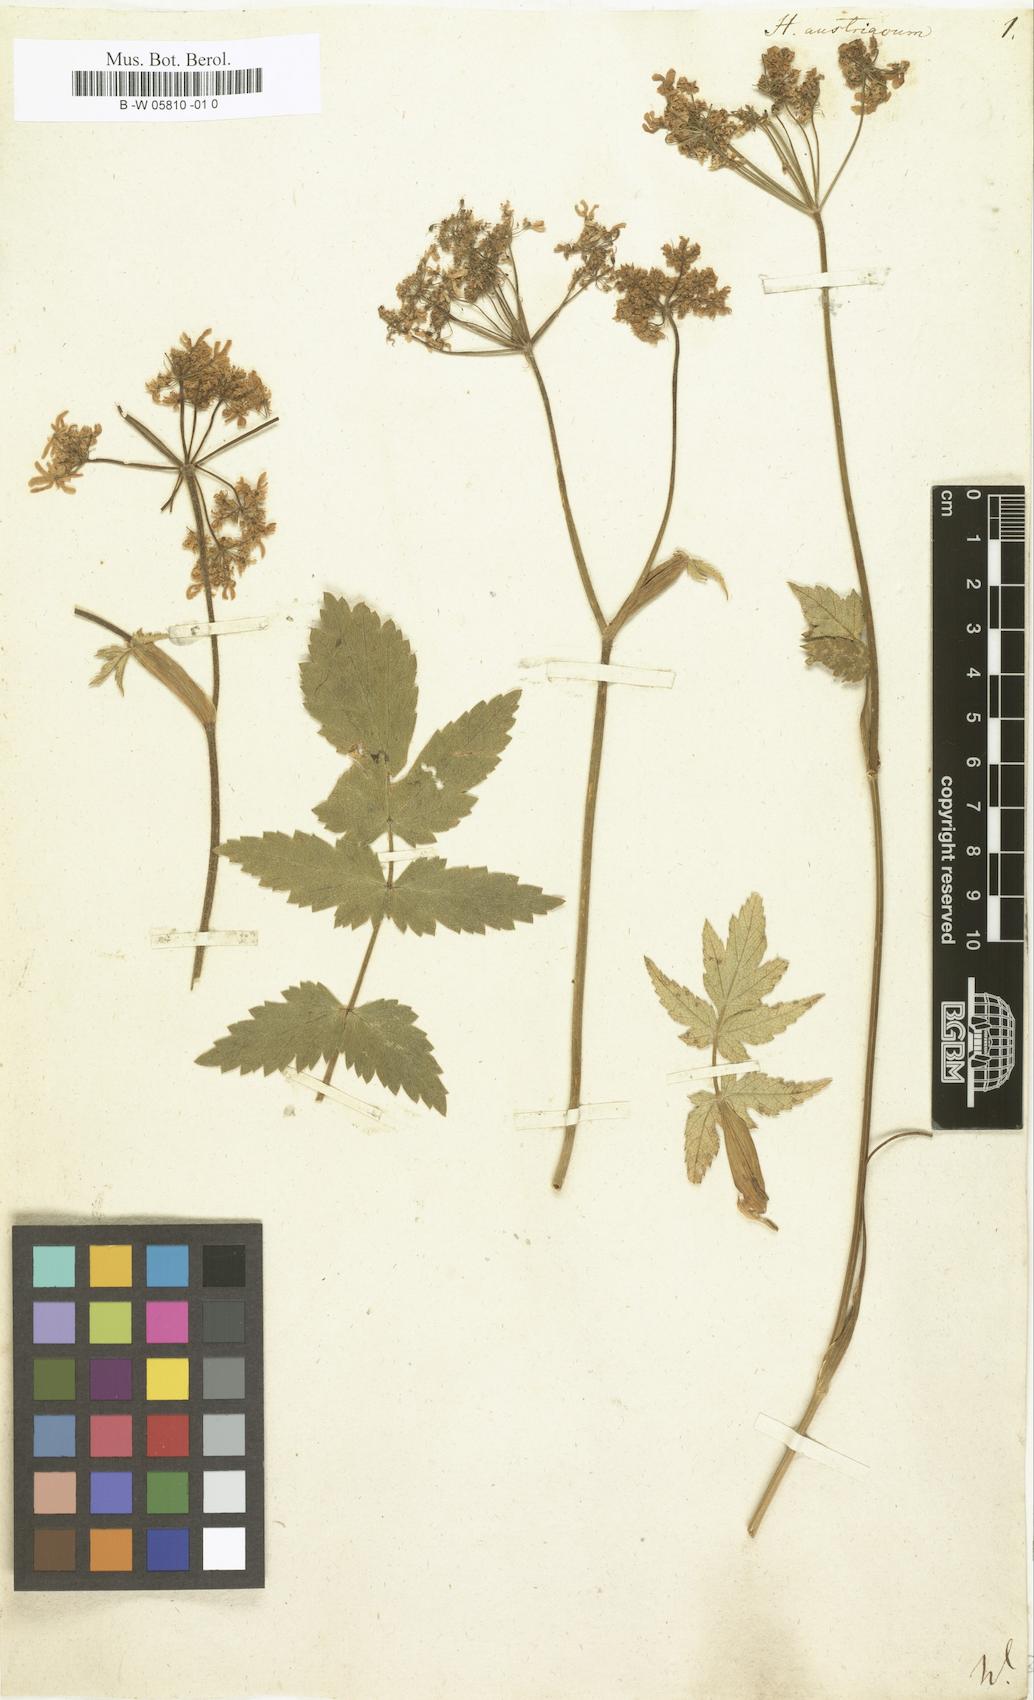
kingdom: Plantae
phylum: Tracheophyta
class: Magnoliopsida
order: Apiales
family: Apiaceae
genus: Heracleum
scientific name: Heracleum austriacum
